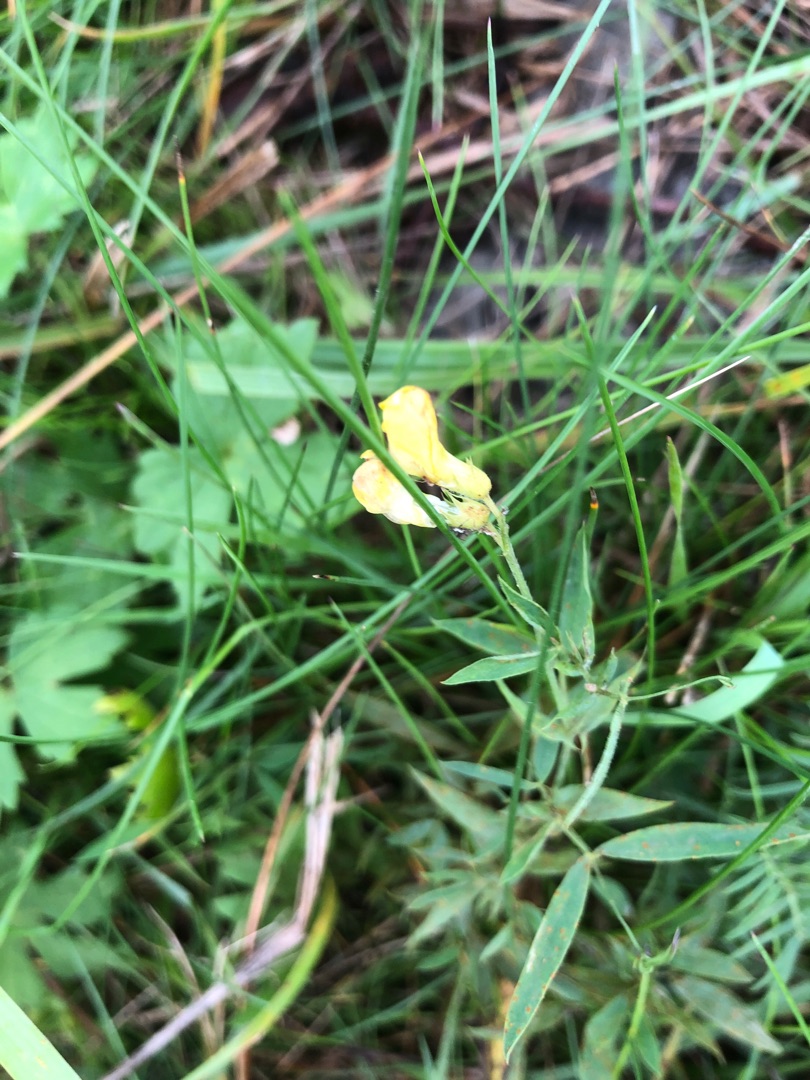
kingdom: Plantae
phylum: Tracheophyta
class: Magnoliopsida
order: Fabales
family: Fabaceae
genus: Lathyrus
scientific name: Lathyrus pratensis
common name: Gul fladbælg
